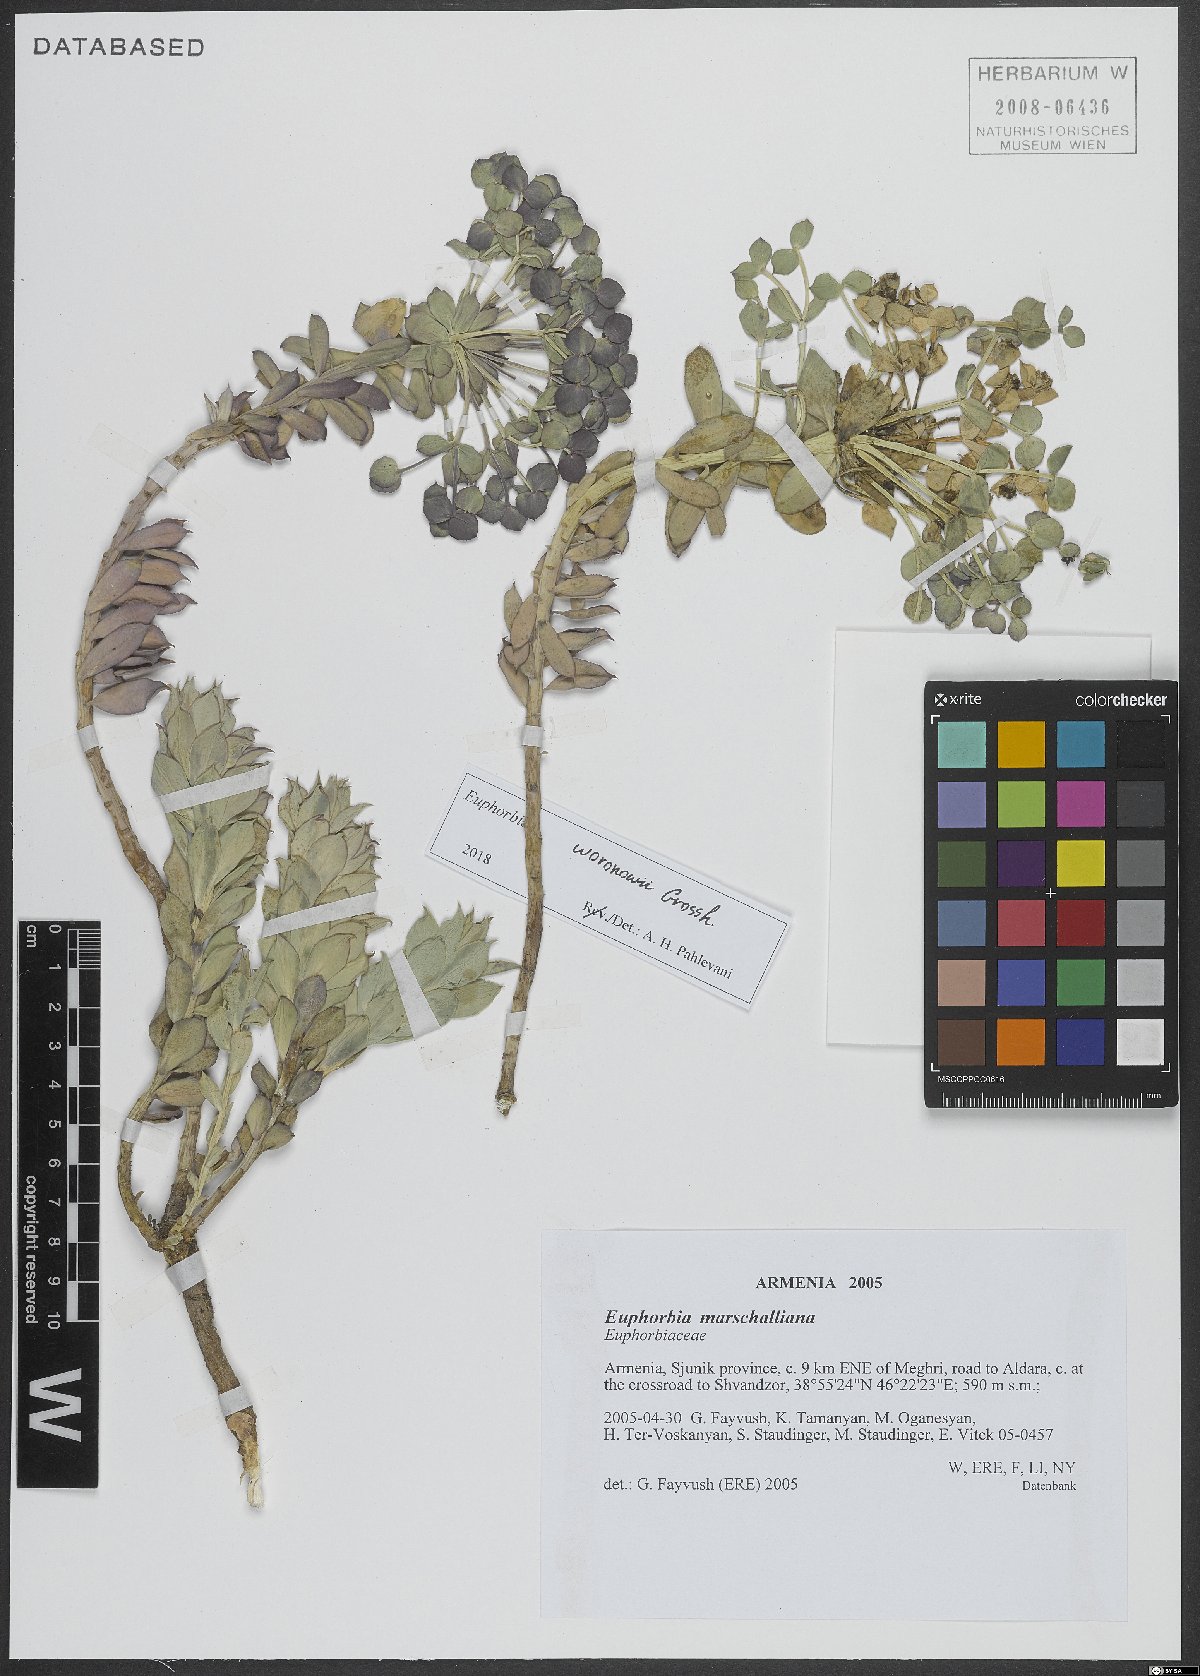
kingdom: Plantae
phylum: Tracheophyta
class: Magnoliopsida
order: Malpighiales
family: Euphorbiaceae
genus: Euphorbia
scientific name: Euphorbia marschalliana
